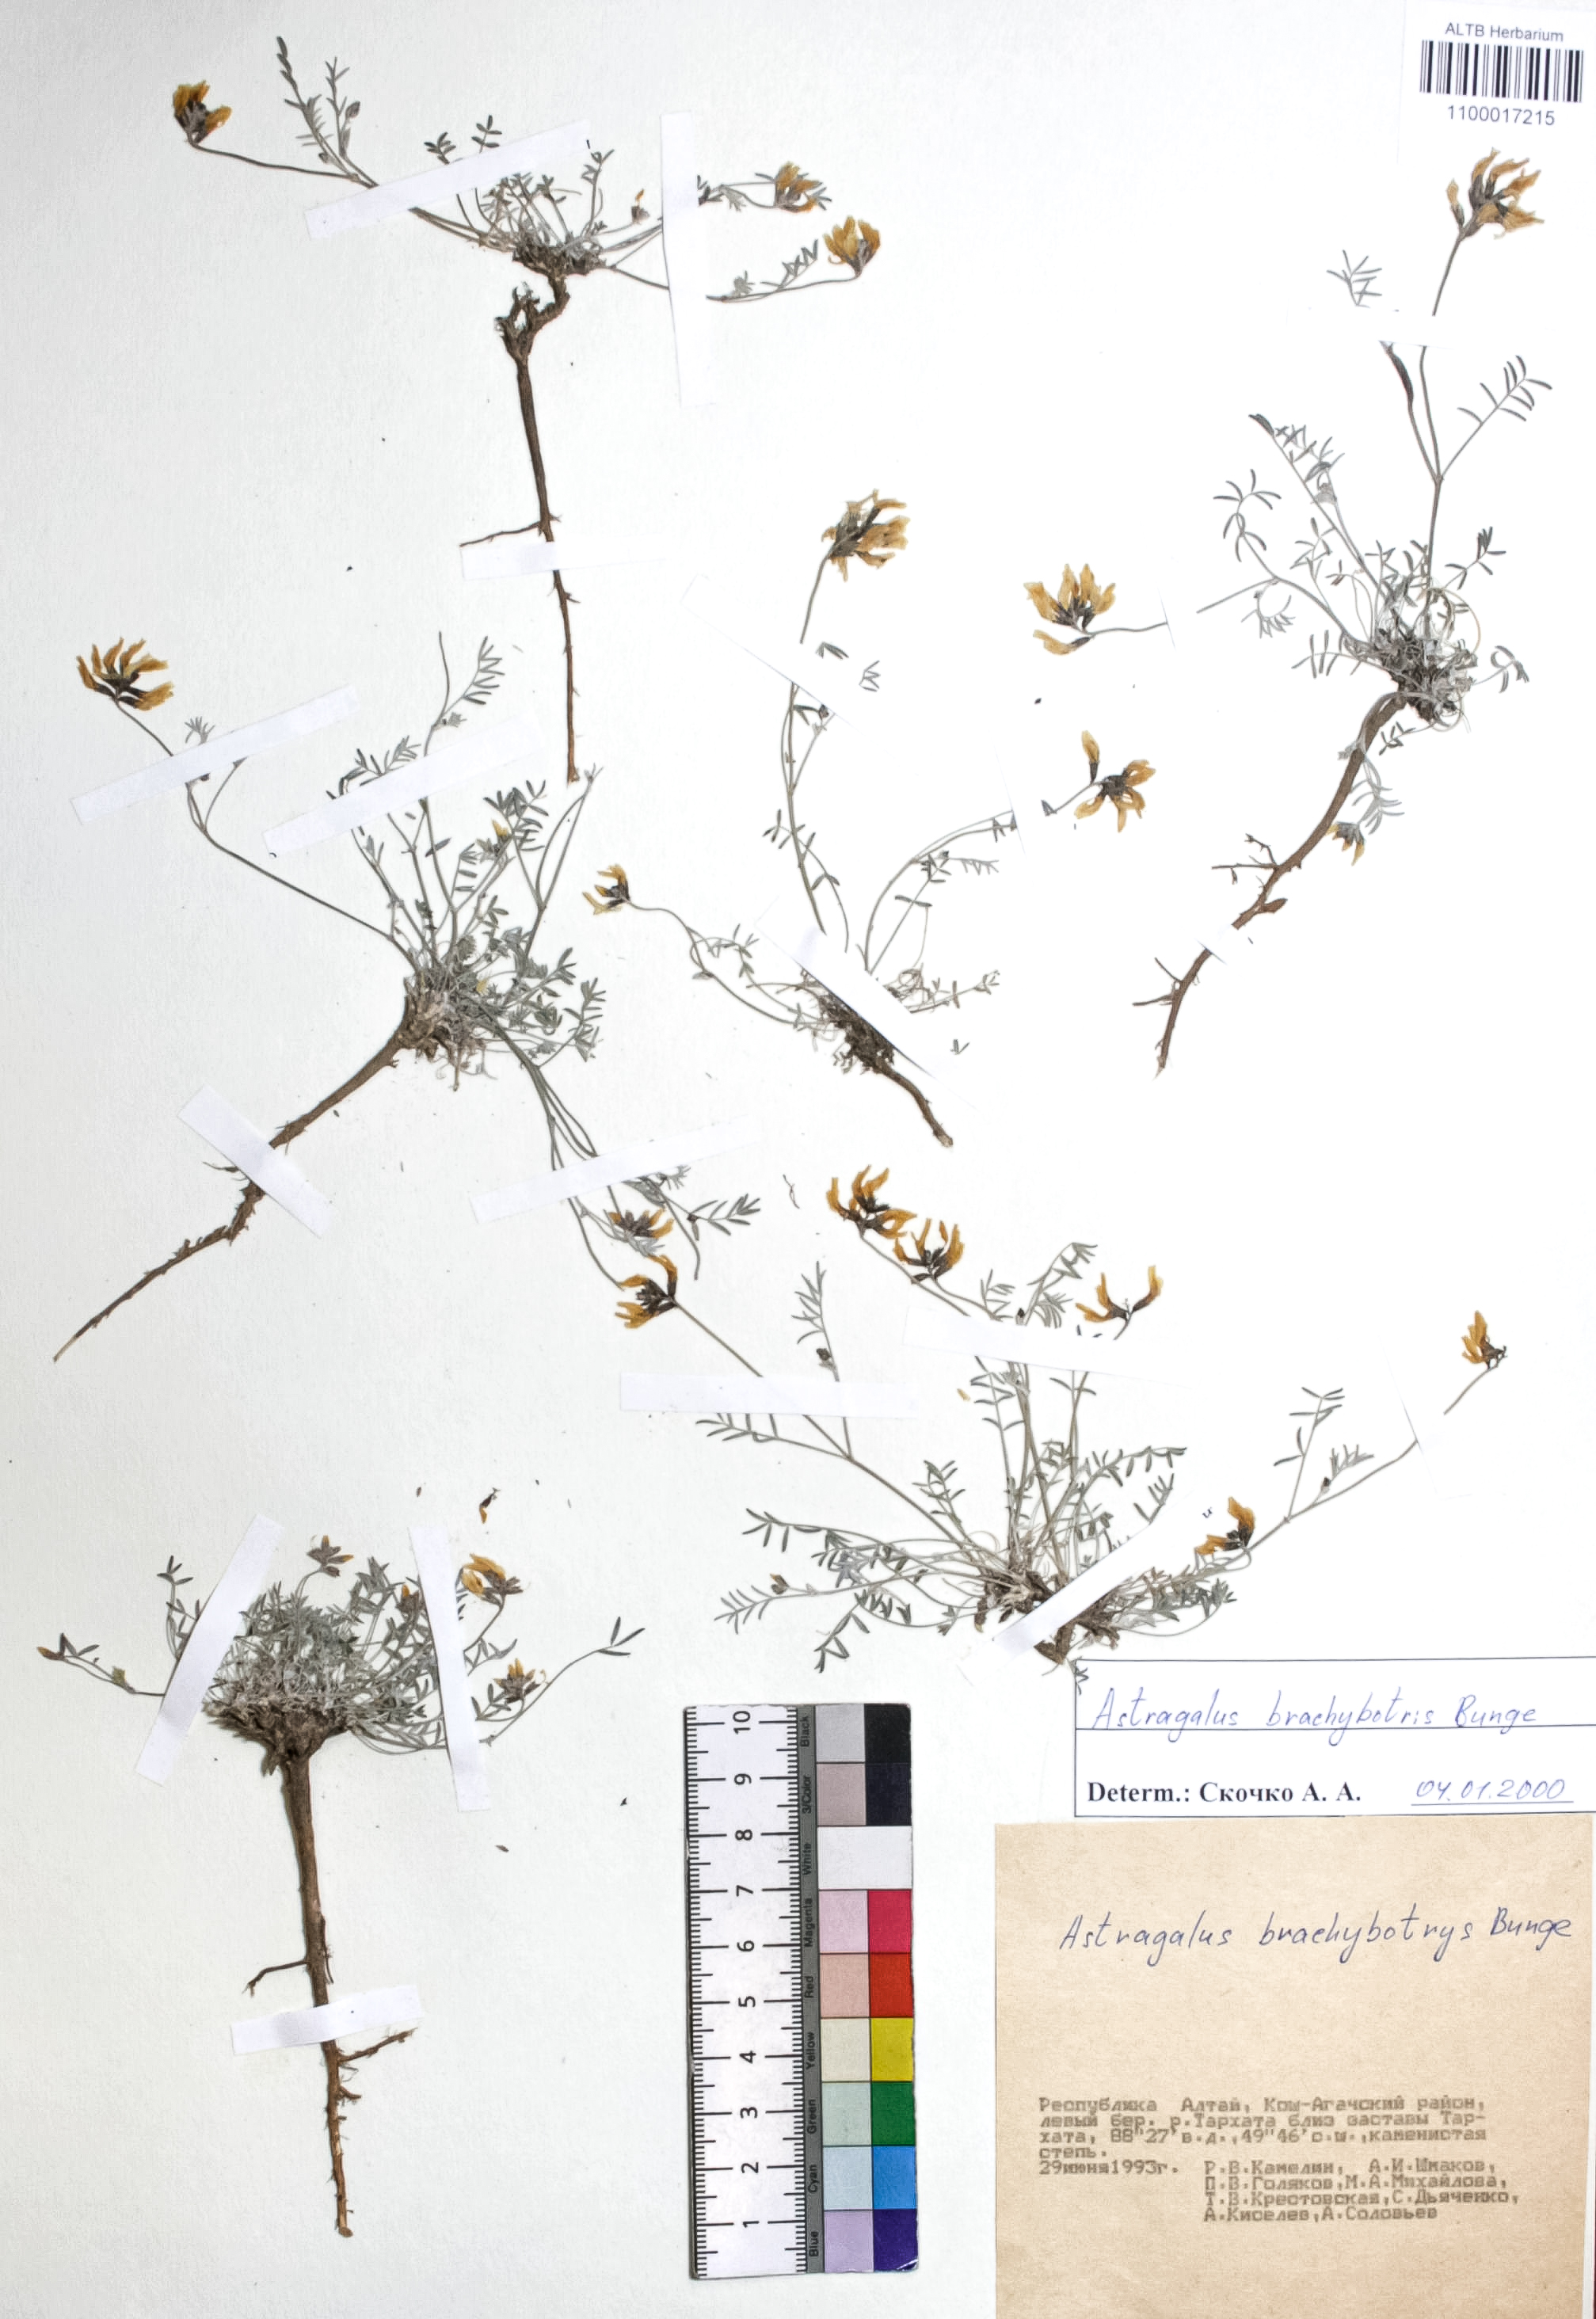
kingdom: Plantae
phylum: Tracheophyta
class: Magnoliopsida
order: Fabales
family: Fabaceae
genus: Astragalus
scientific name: Astragalus brachybotrys
